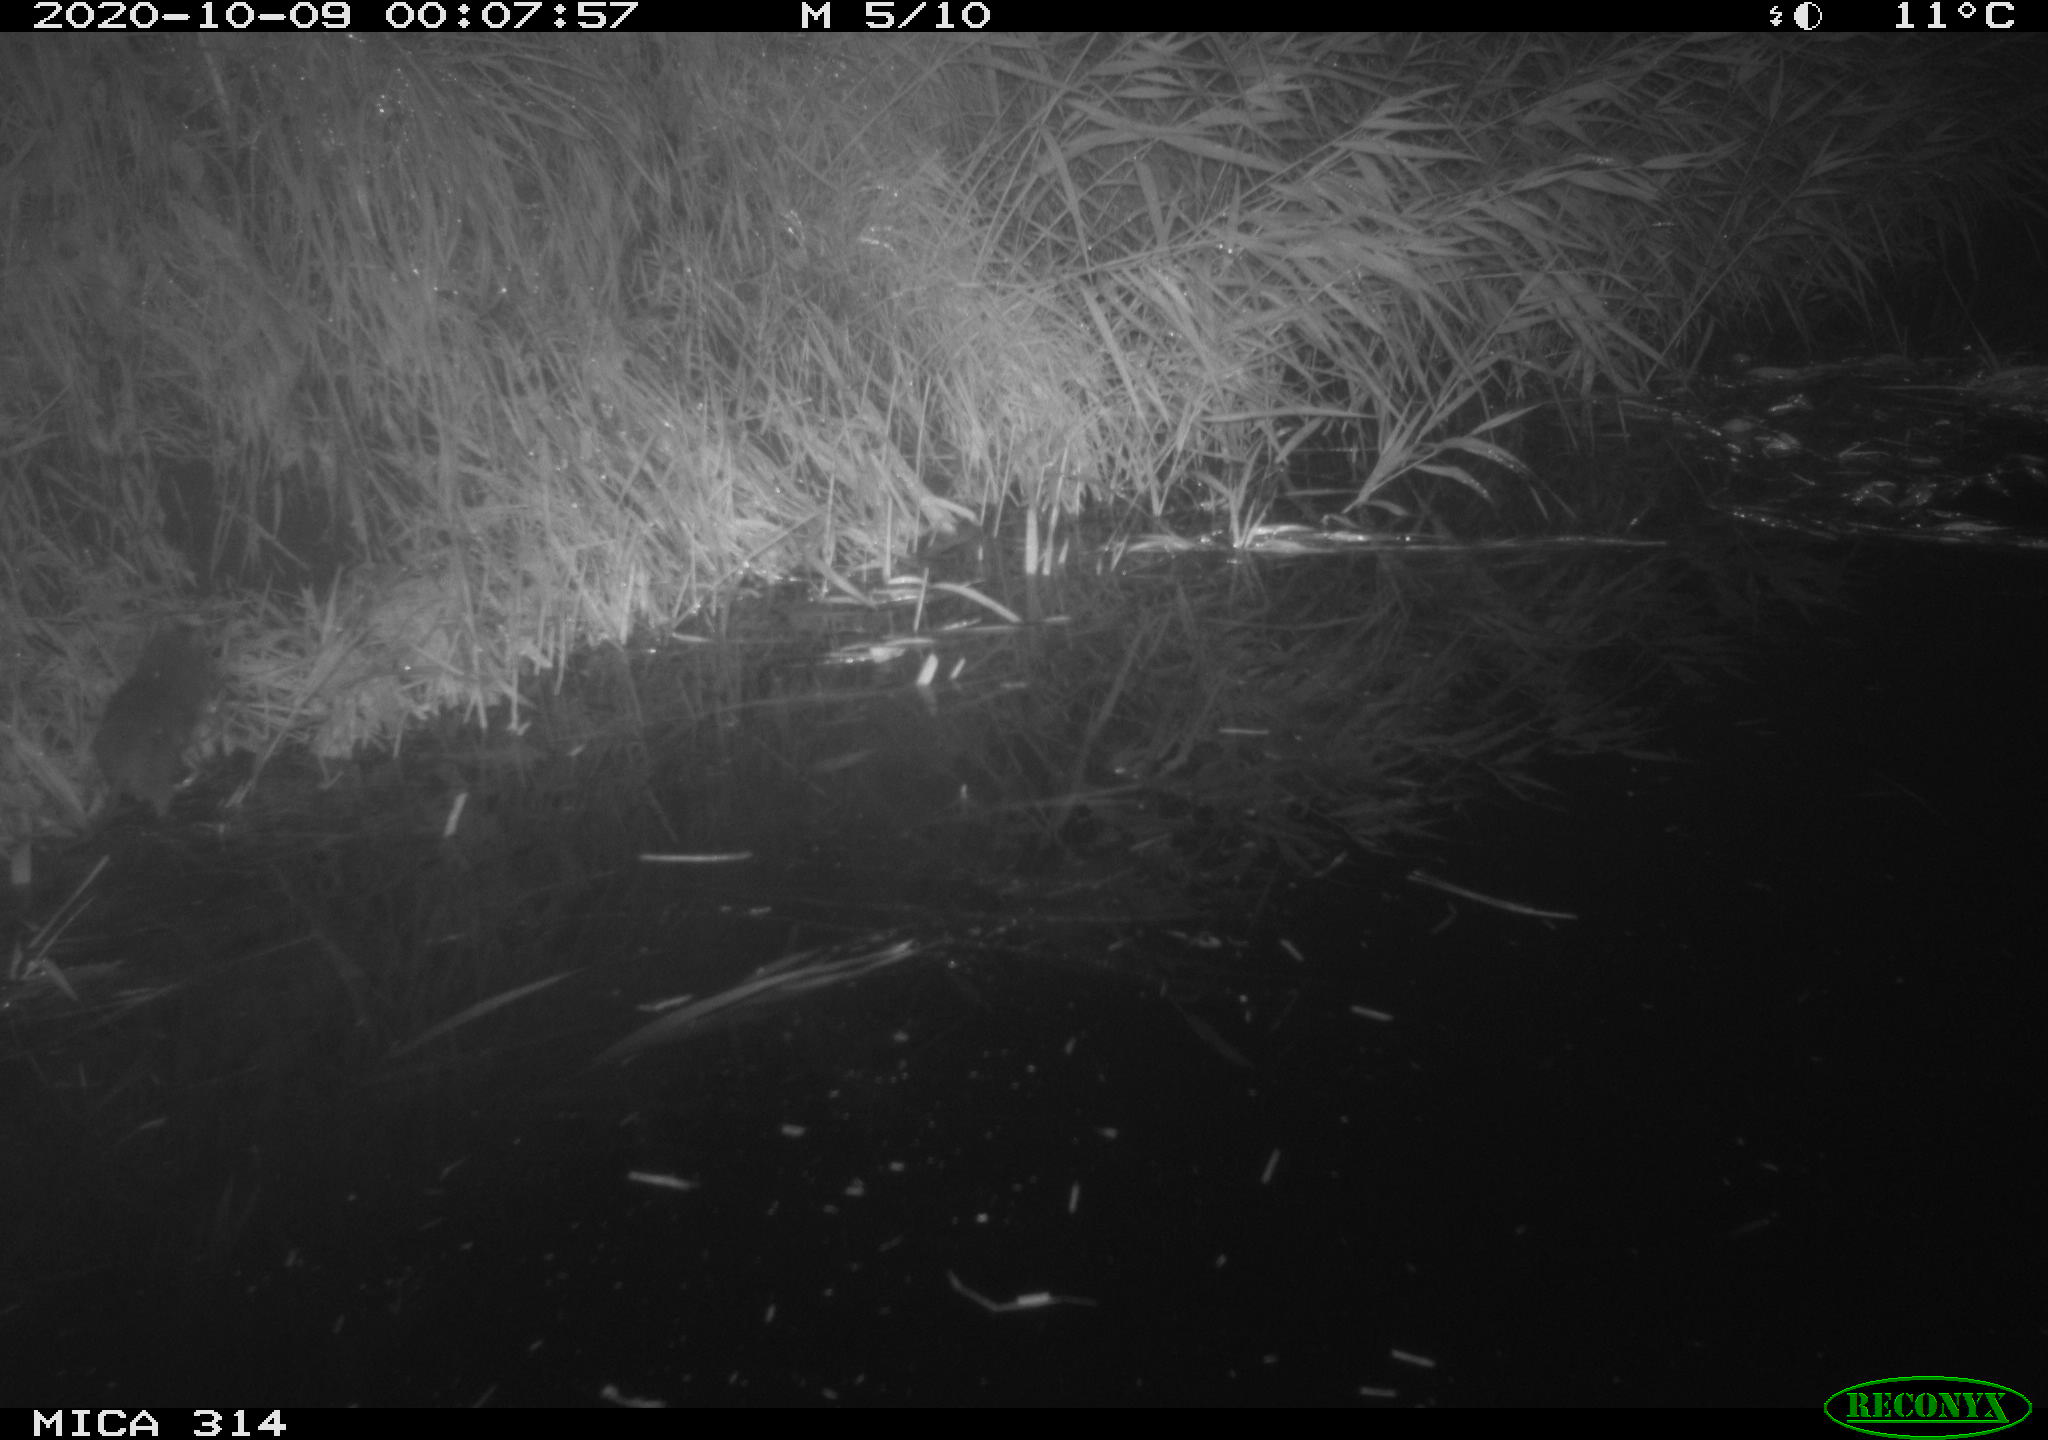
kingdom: Animalia
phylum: Chordata
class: Mammalia
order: Rodentia
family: Muridae
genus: Rattus
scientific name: Rattus norvegicus
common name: Brown rat
